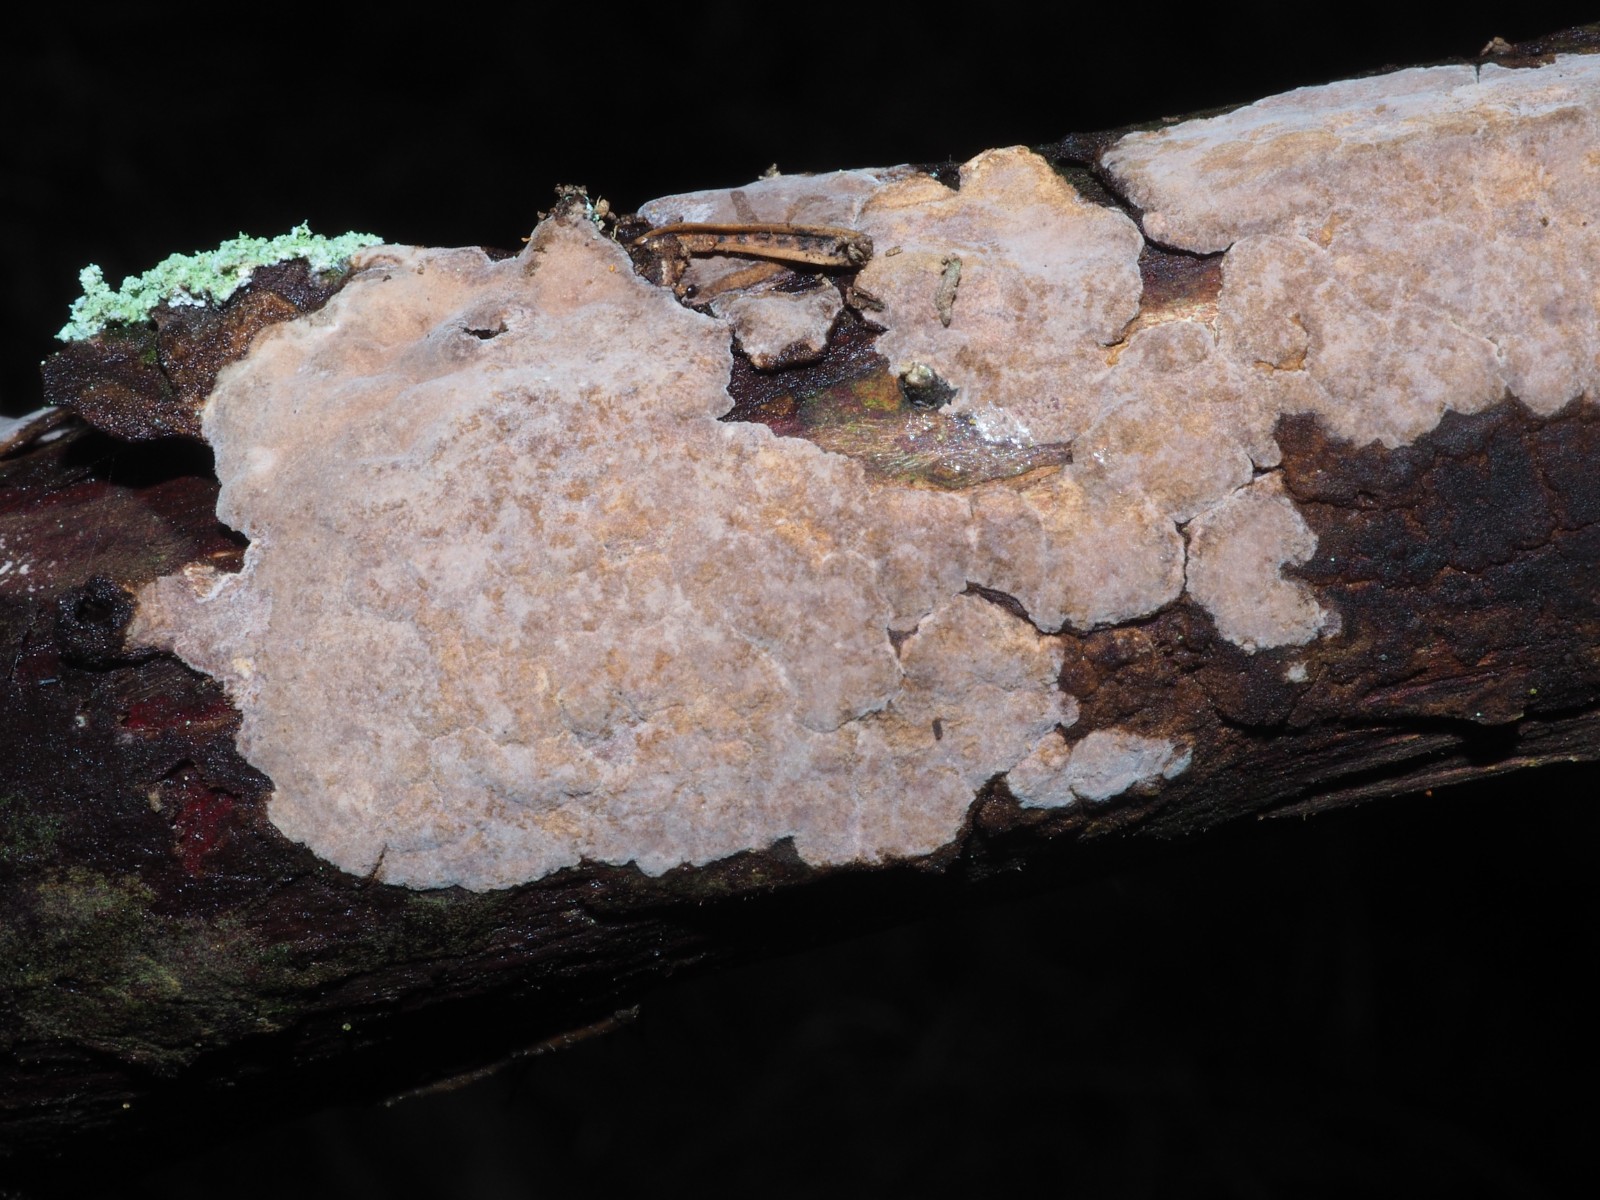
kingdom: Fungi
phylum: Basidiomycota
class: Agaricomycetes
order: Russulales
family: Echinodontiaceae
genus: Amylostereum
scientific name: Amylostereum laevigatum
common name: ene-lædersvamp
